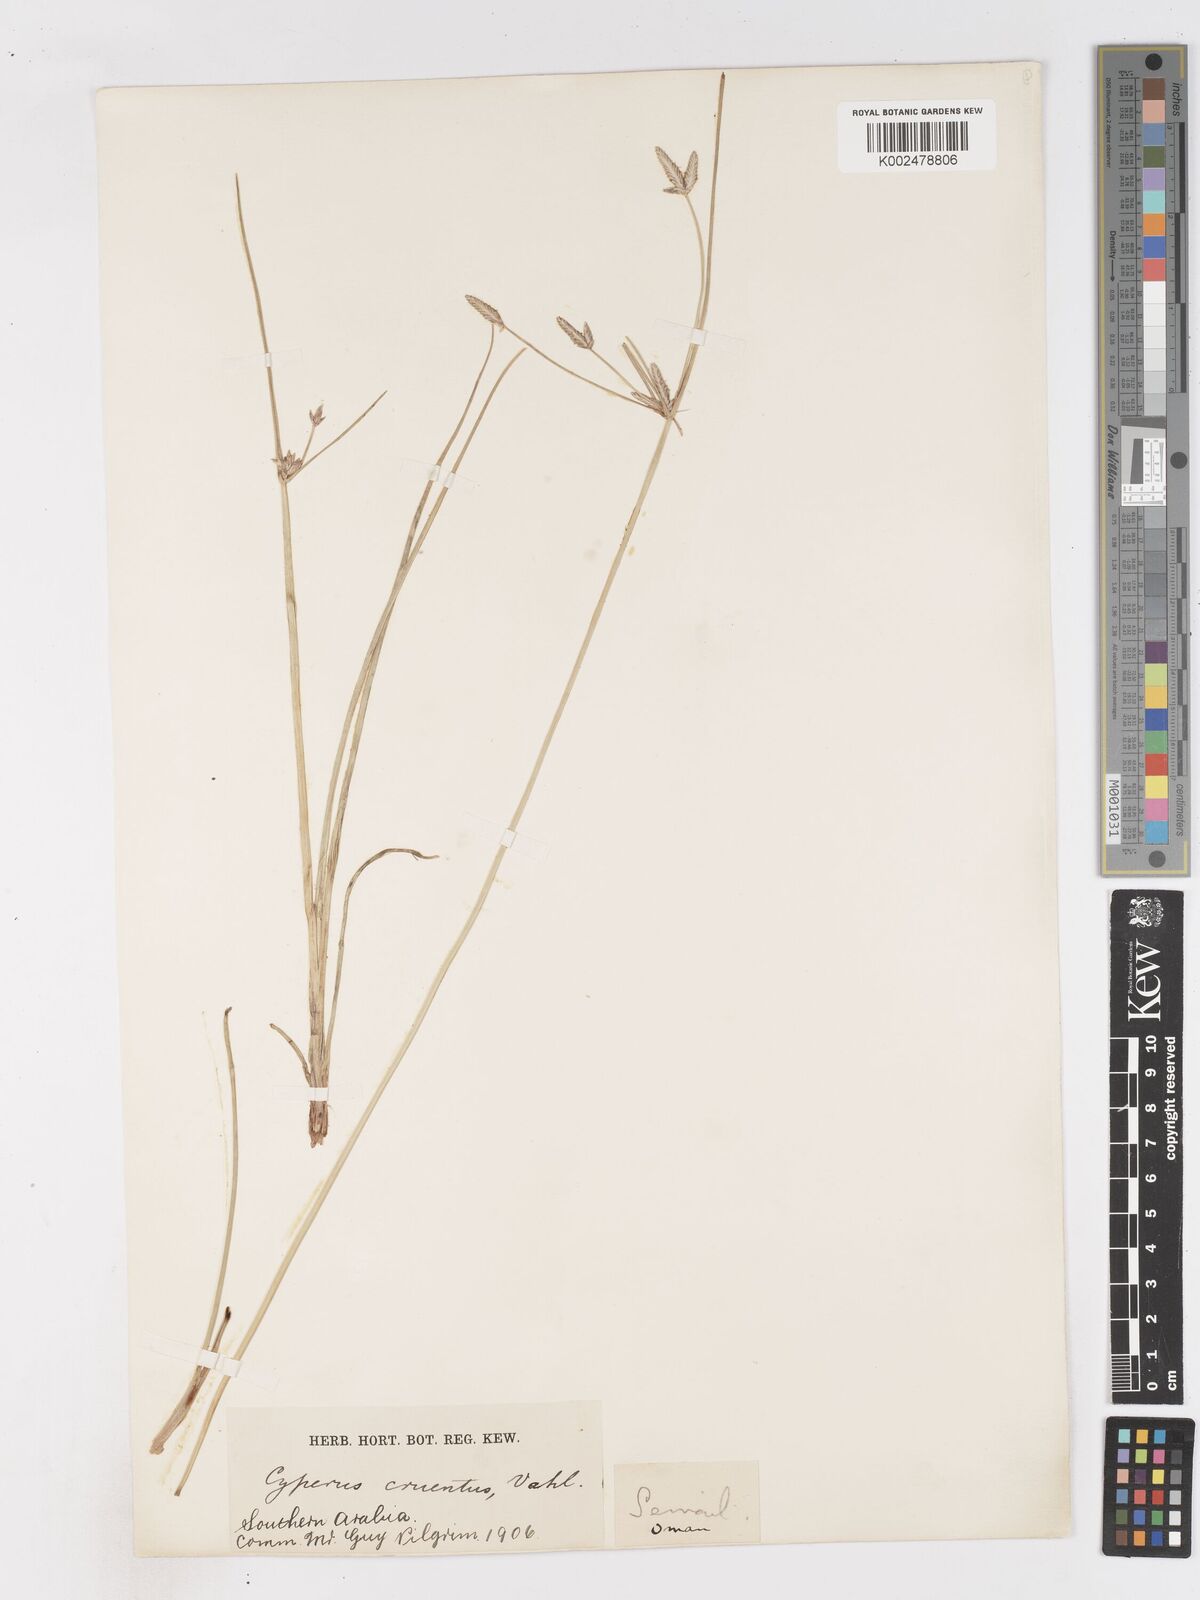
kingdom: Plantae
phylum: Tracheophyta
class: Liliopsida
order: Poales
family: Cyperaceae
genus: Cyperus
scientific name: Cyperus aucheri
